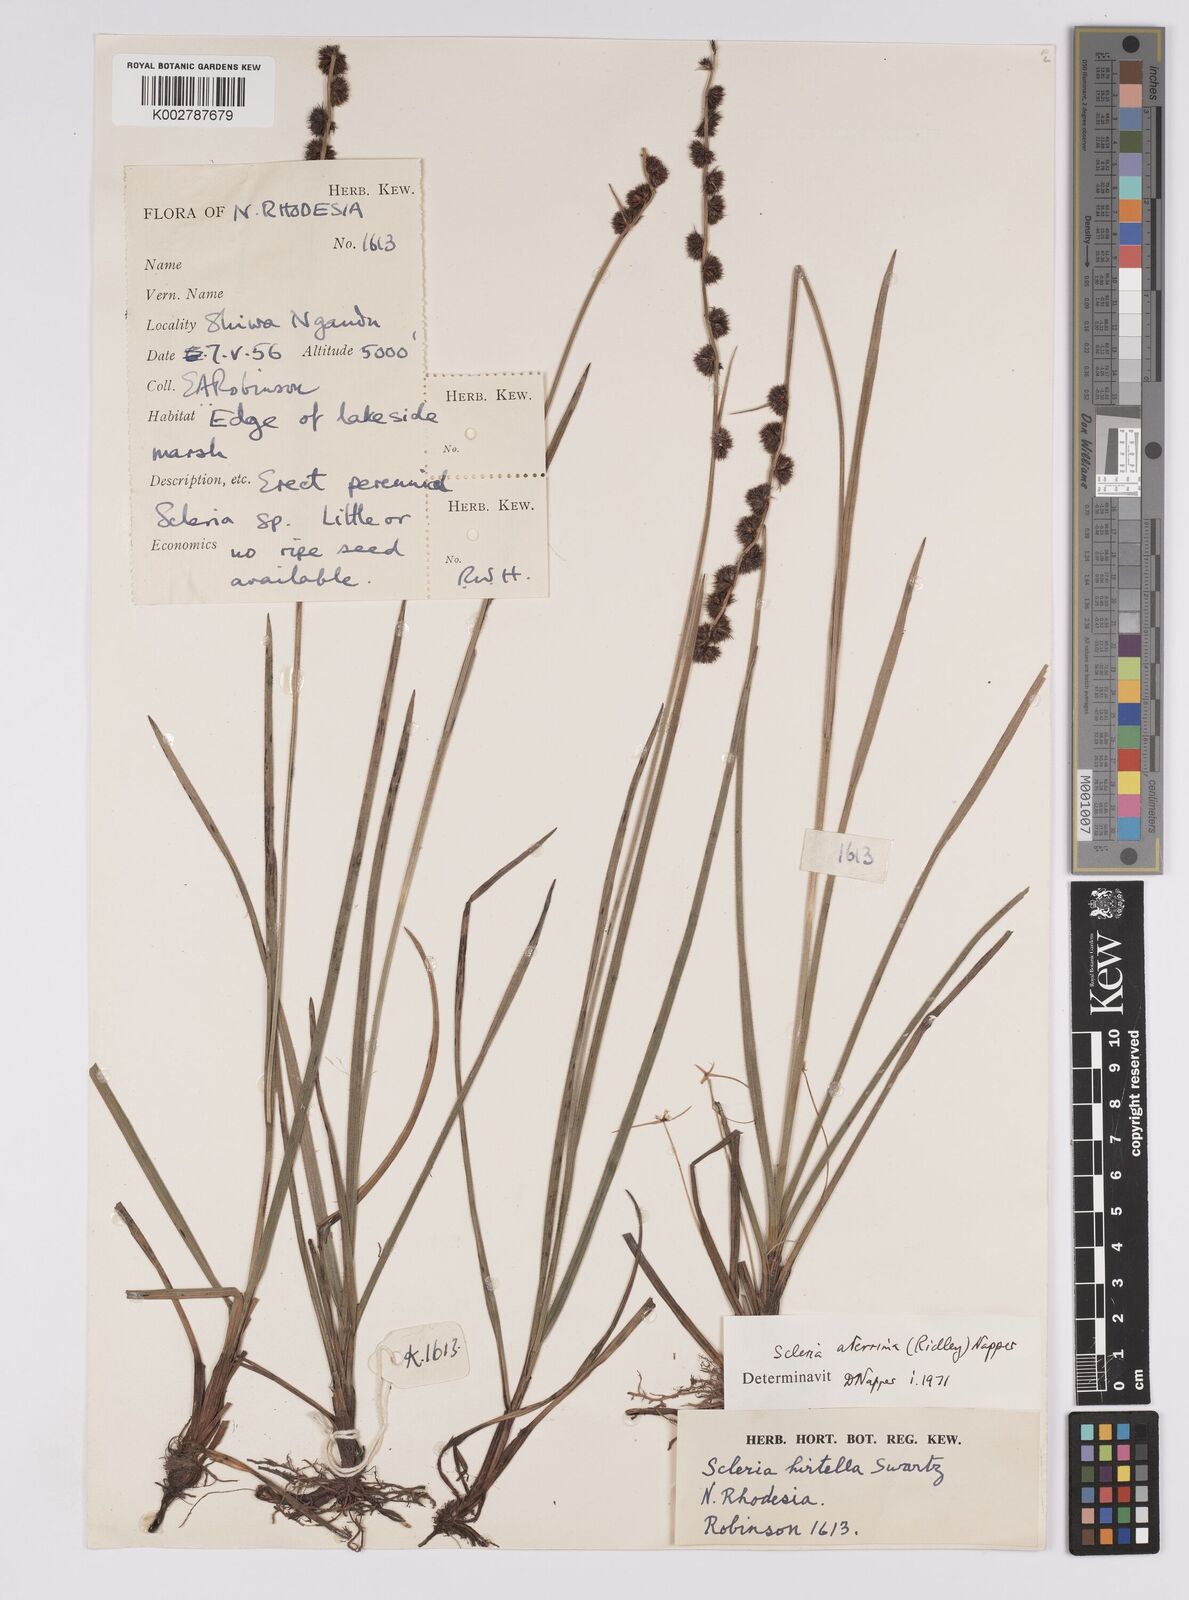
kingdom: Plantae
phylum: Tracheophyta
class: Liliopsida
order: Poales
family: Cyperaceae
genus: Scleria
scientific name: Scleria catophylla
